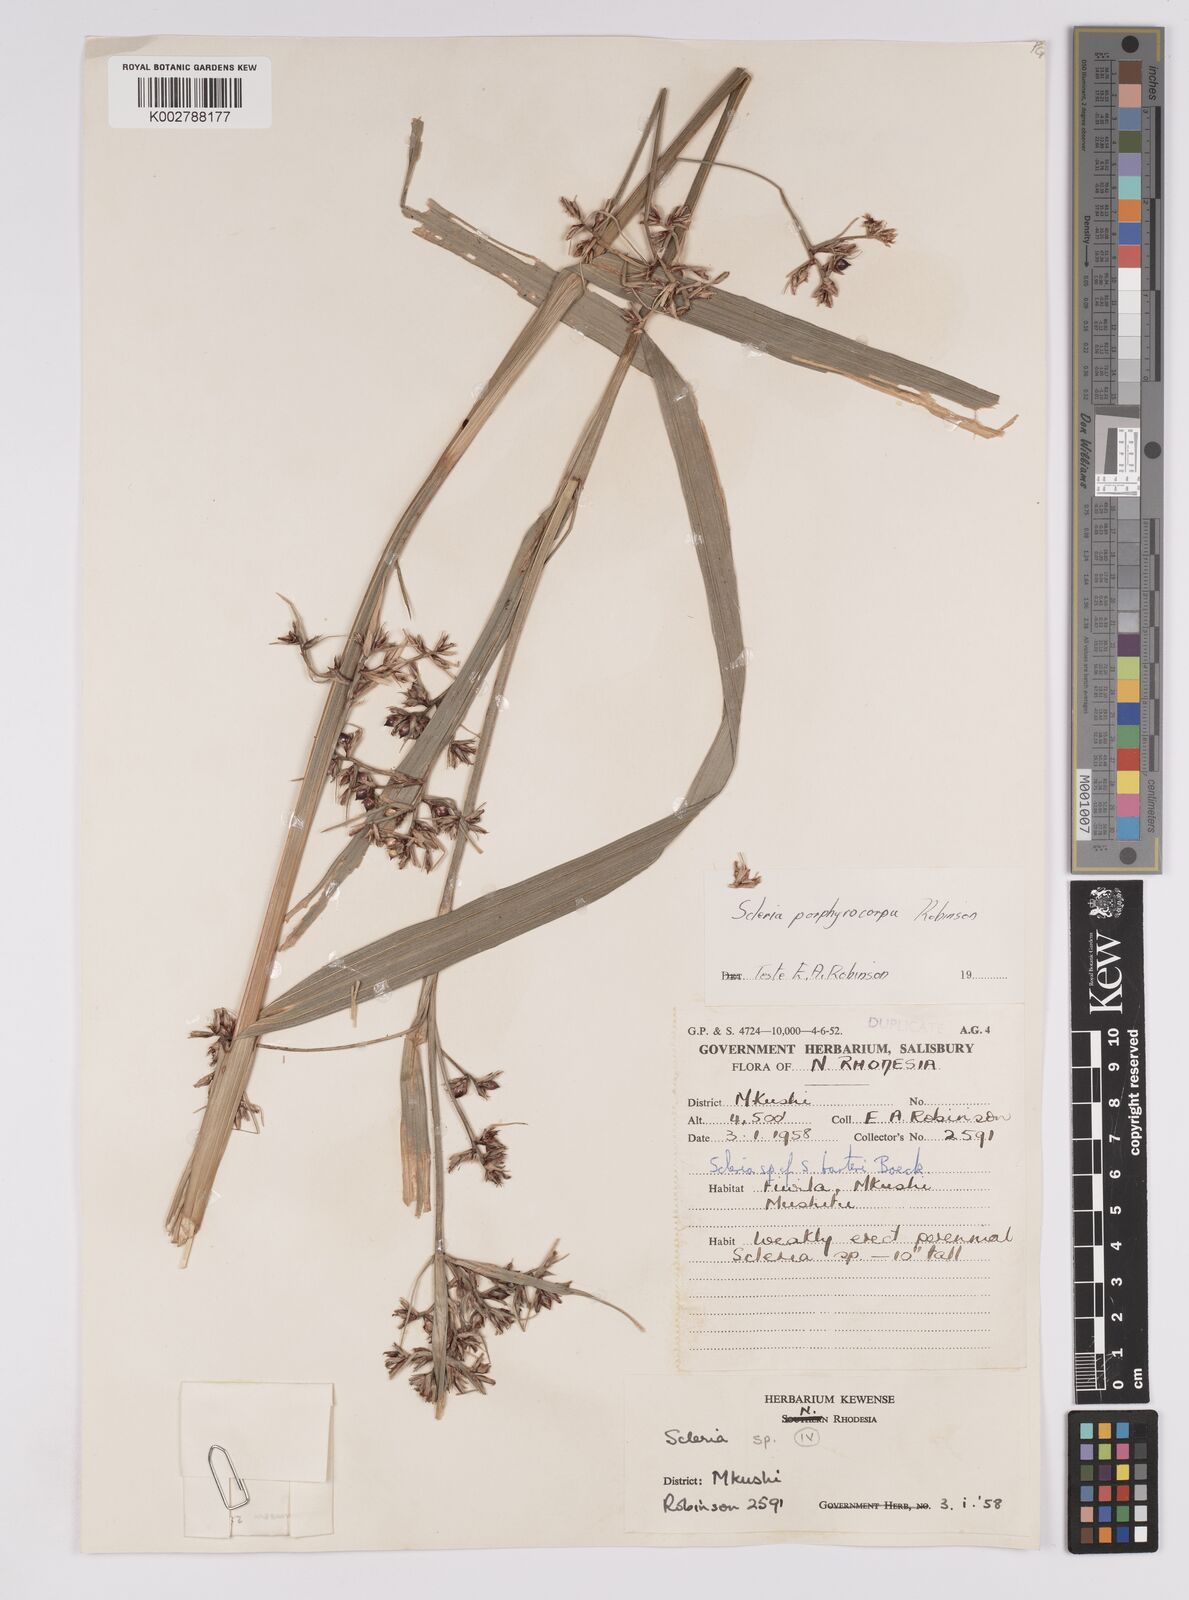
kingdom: Plantae
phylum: Tracheophyta
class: Liliopsida
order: Poales
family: Cyperaceae
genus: Scleria
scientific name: Scleria porphyrocarpa
